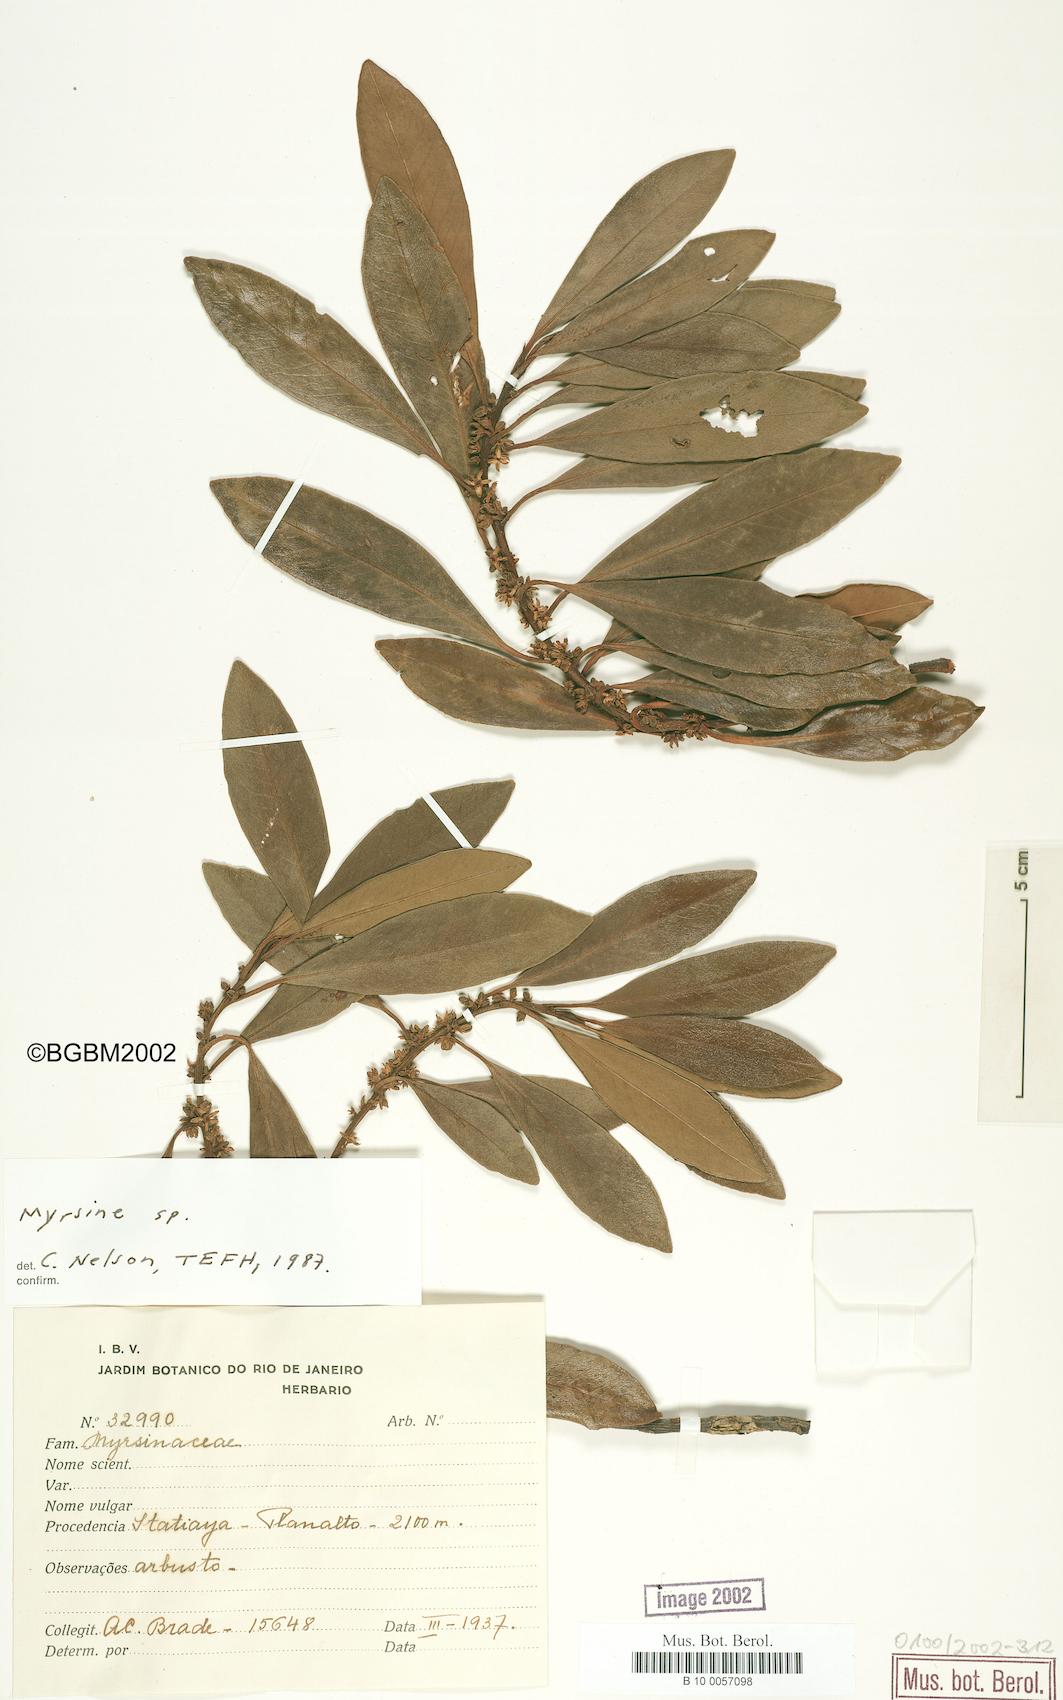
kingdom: Plantae
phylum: Tracheophyta
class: Magnoliopsida
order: Ericales
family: Primulaceae
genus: Myrsine
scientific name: Myrsine
